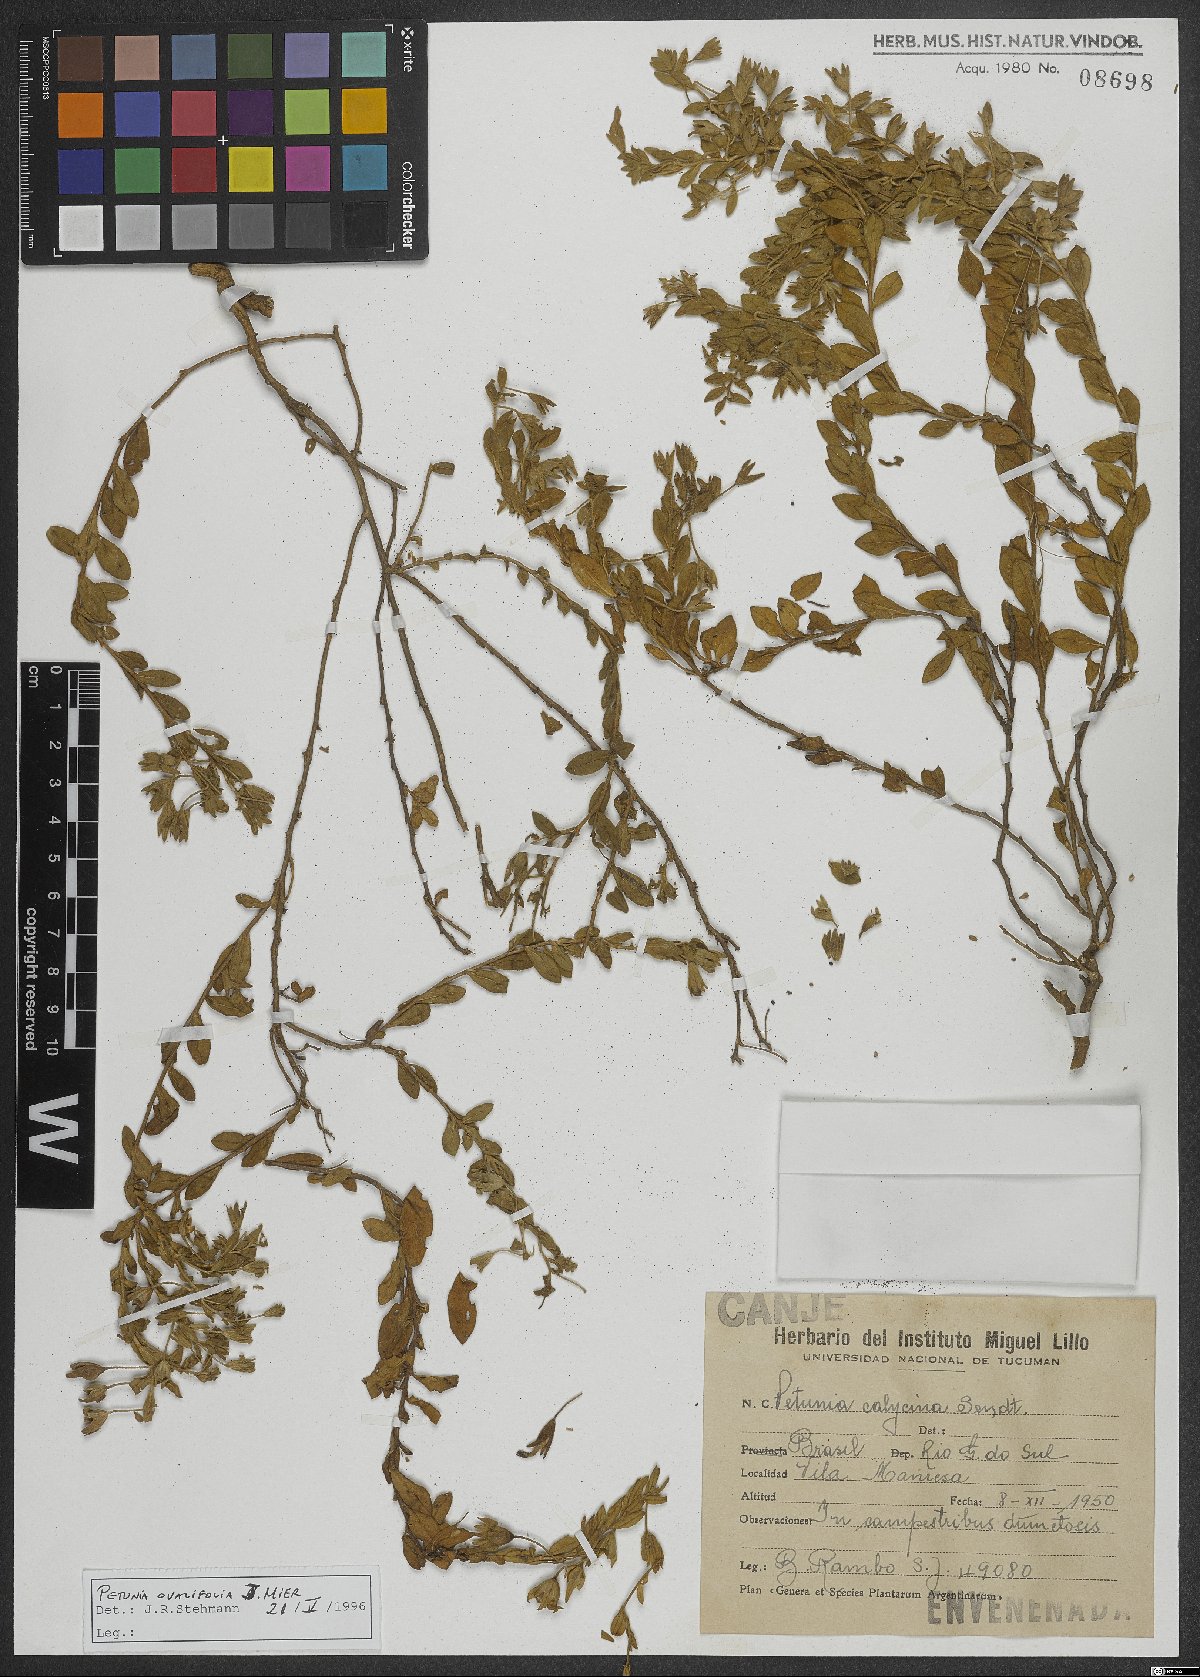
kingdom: Plantae
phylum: Tracheophyta
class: Magnoliopsida
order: Solanales
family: Solanaceae
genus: Calibrachoa
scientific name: Calibrachoa calycina
